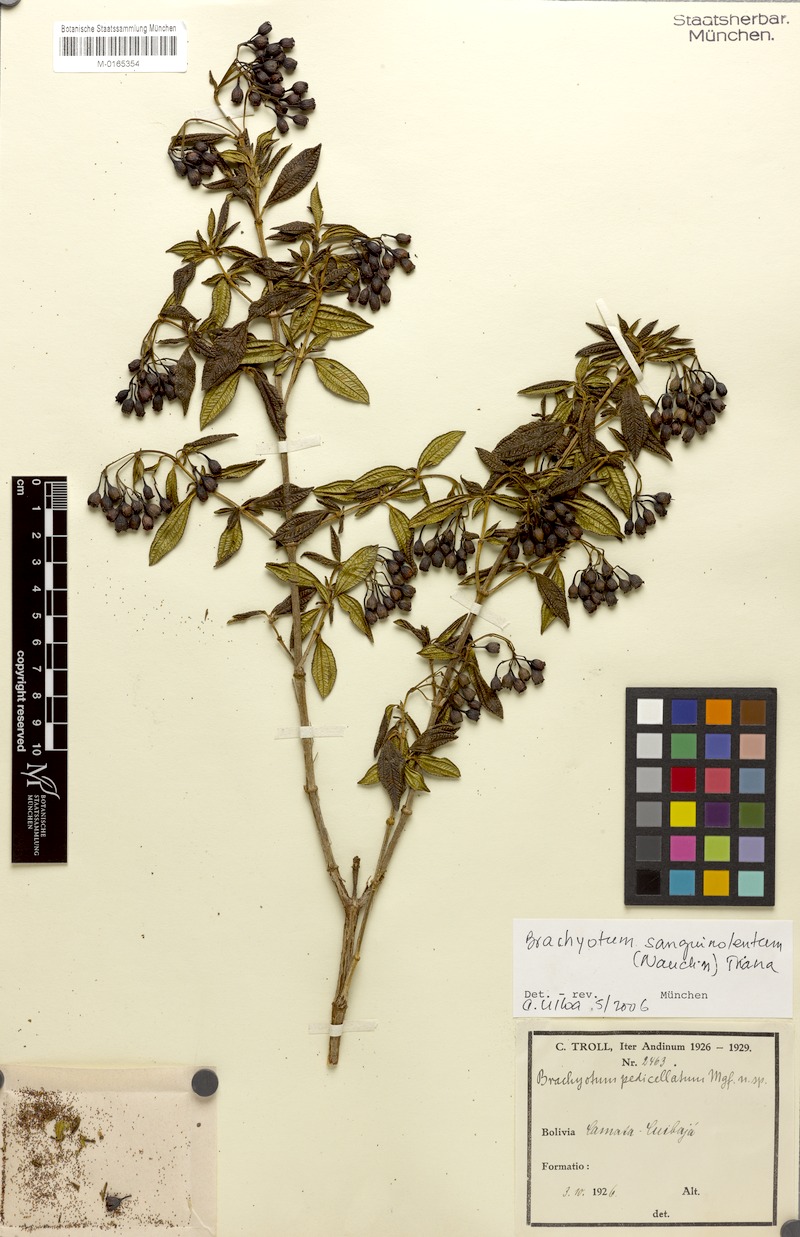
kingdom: Plantae
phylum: Tracheophyta
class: Magnoliopsida
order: Myrtales
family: Melastomataceae
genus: Brachyotum
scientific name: Brachyotum sanguinolentum
